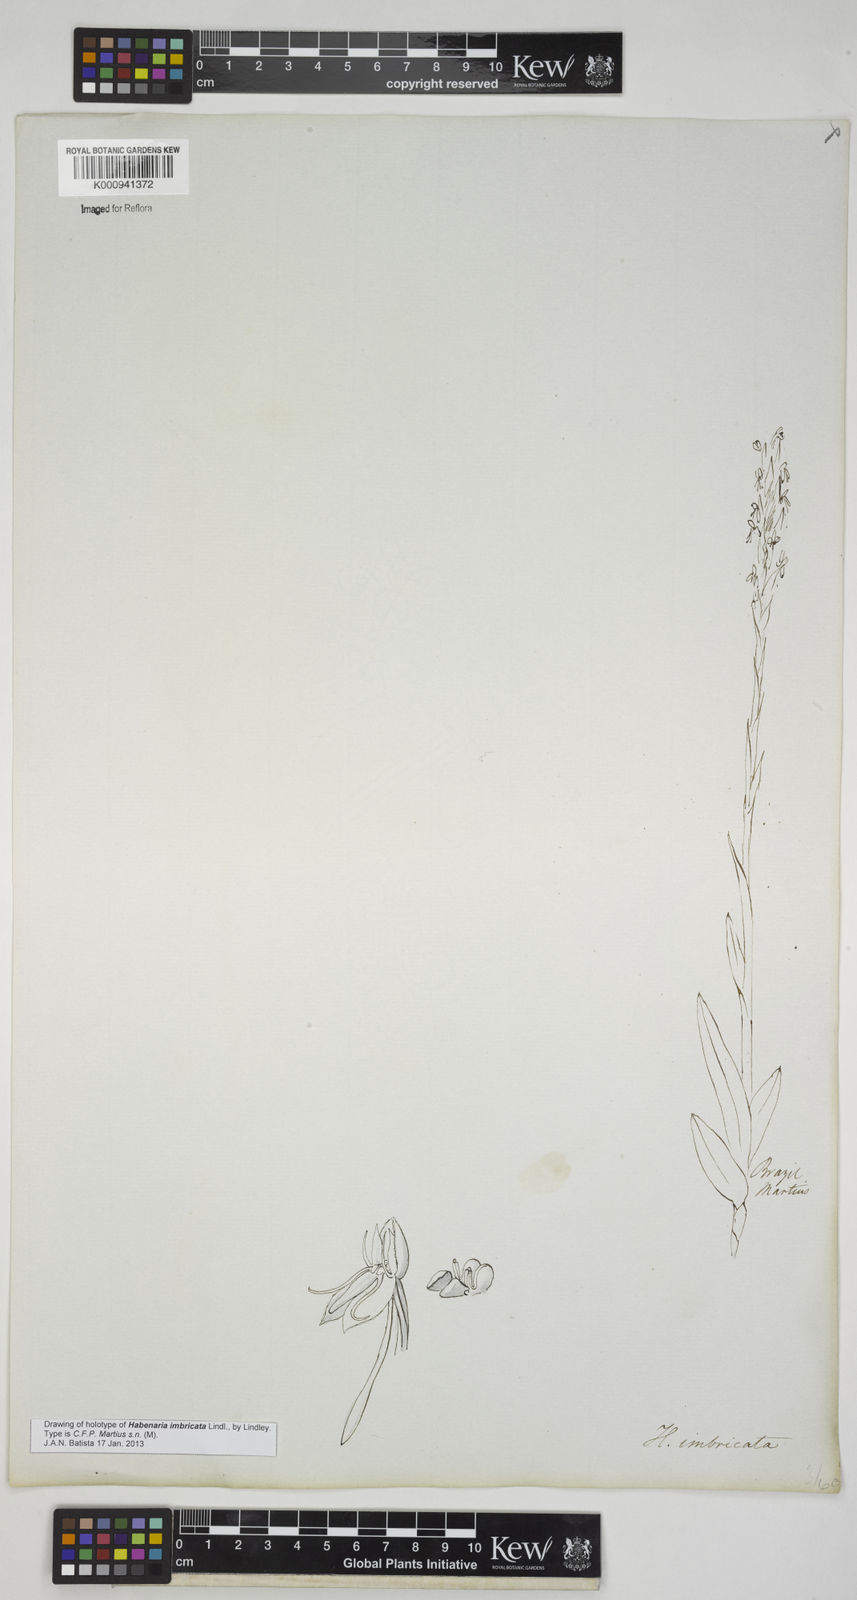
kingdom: Plantae
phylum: Tracheophyta
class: Liliopsida
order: Asparagales
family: Orchidaceae
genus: Habenaria
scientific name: Habenaria imbricata
